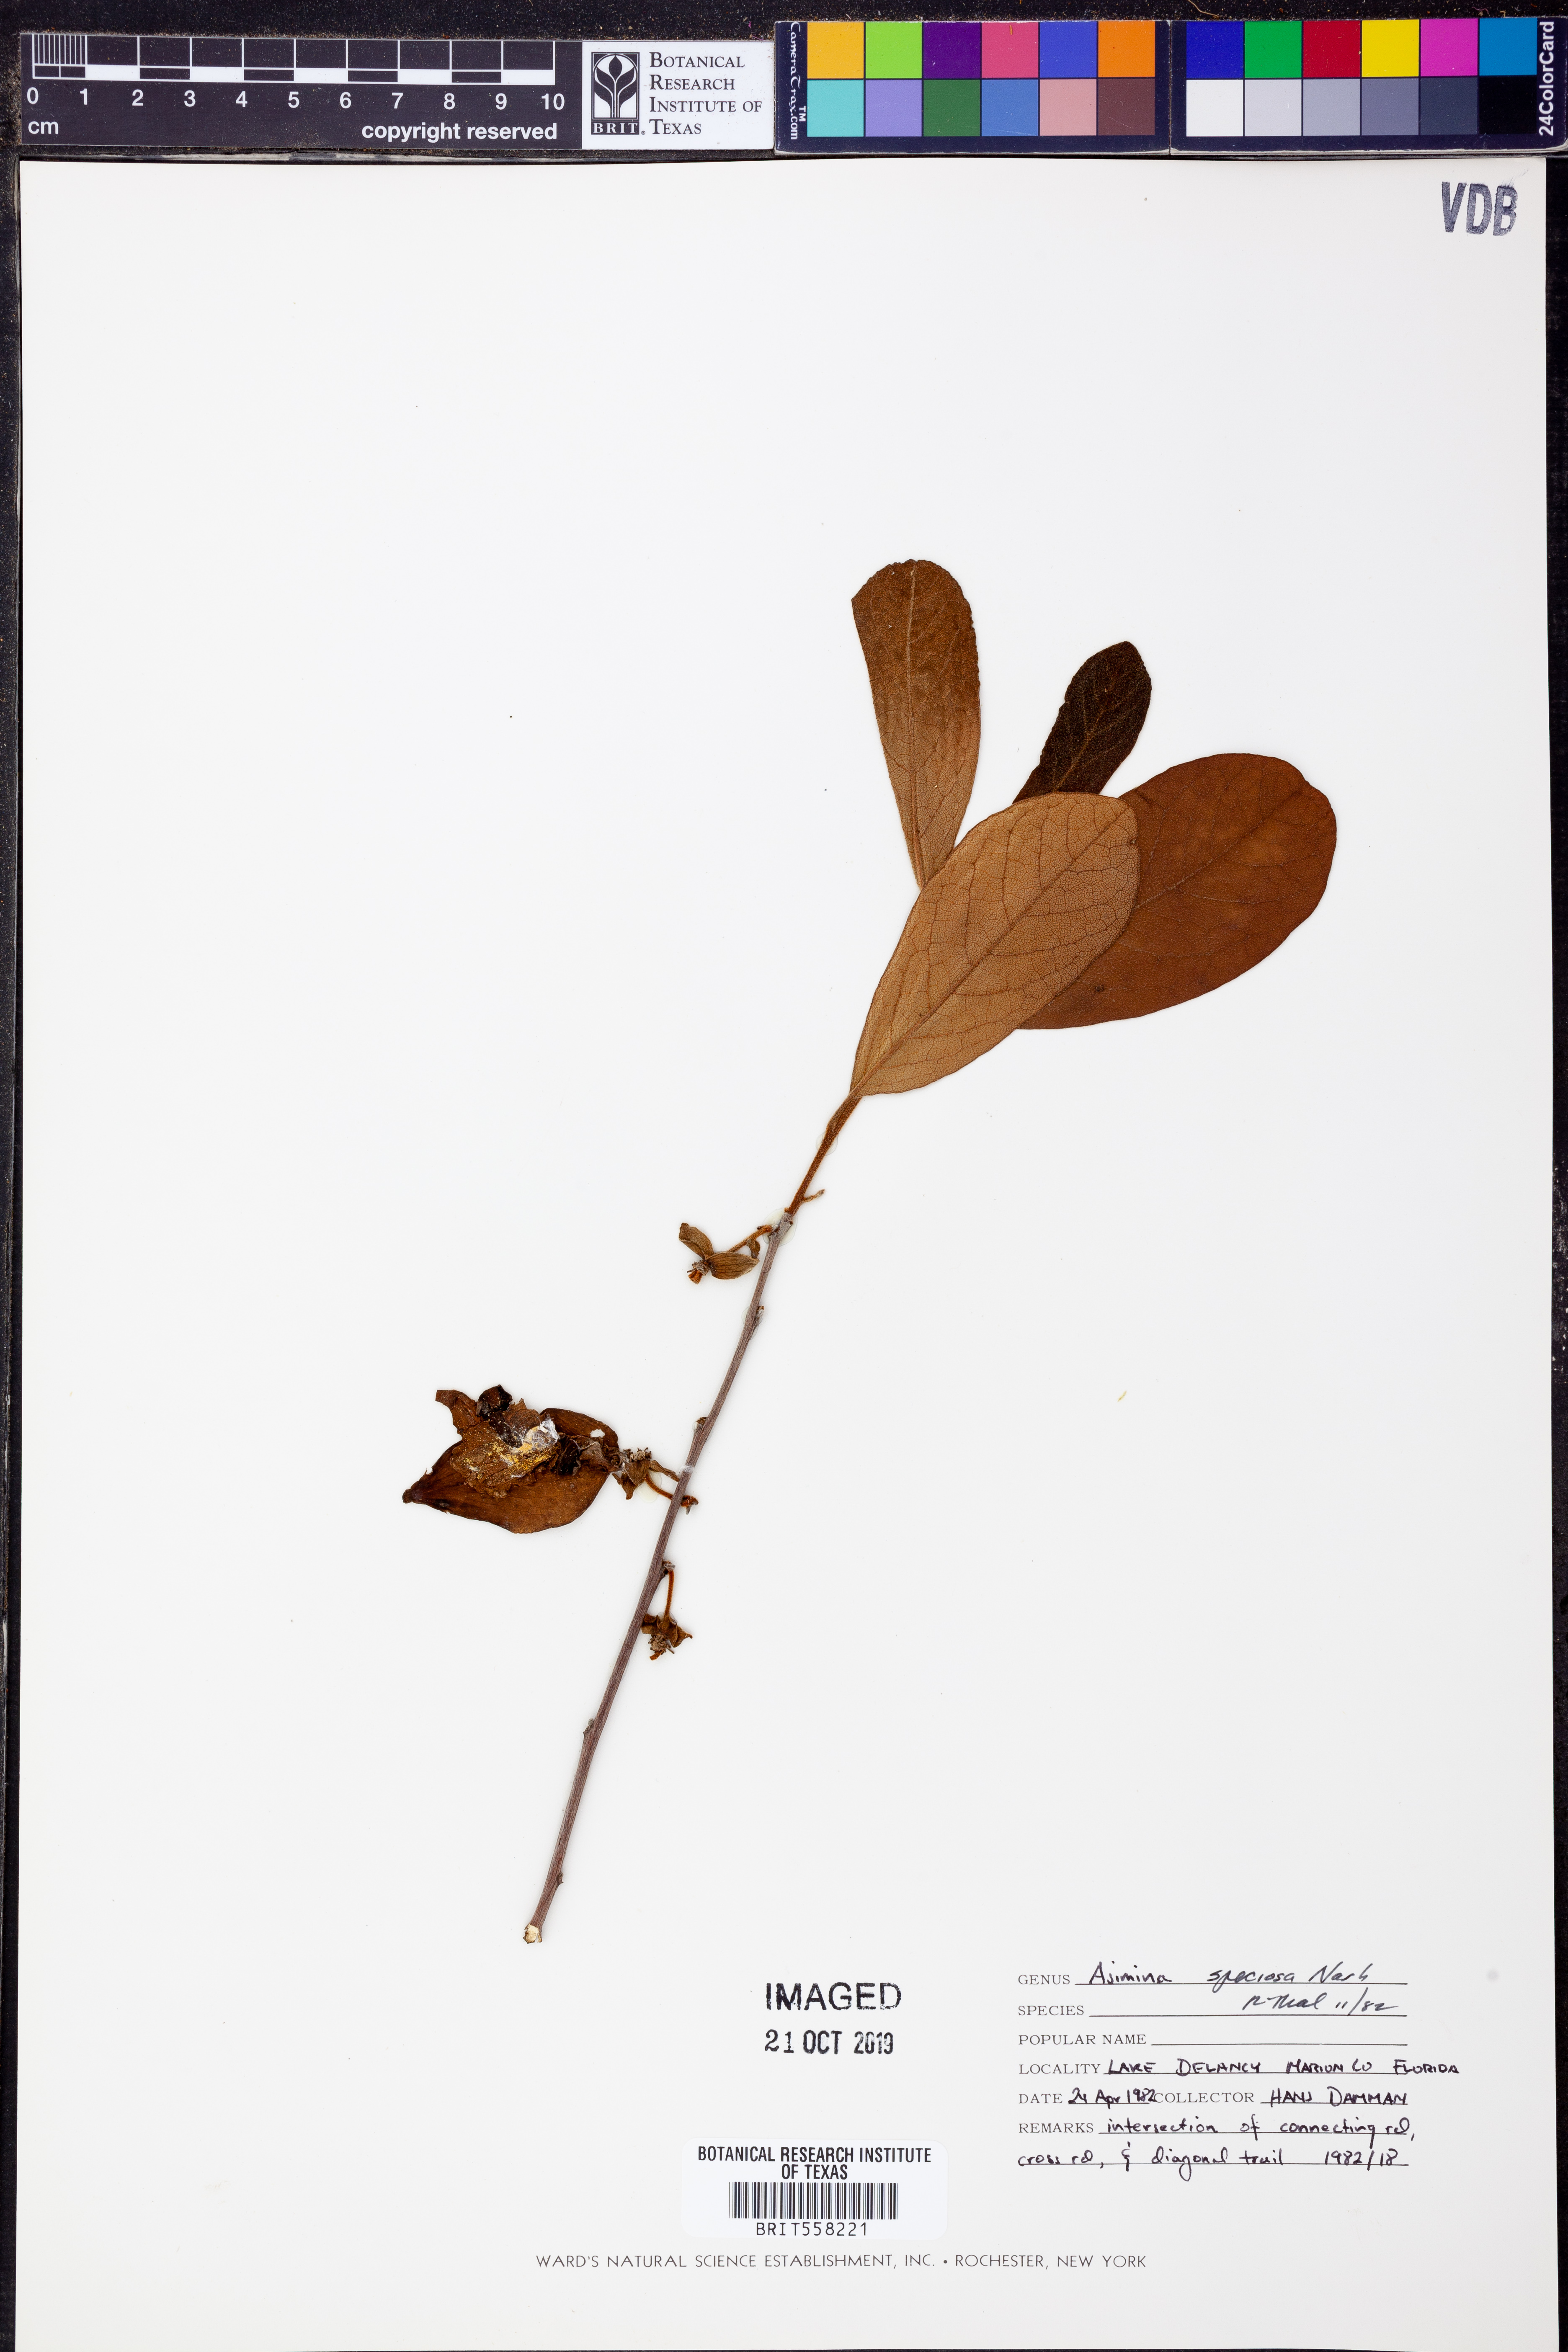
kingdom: Plantae
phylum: Tracheophyta
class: Magnoliopsida
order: Magnoliales
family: Annonaceae
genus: Asimina
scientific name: Asimina speciosa
